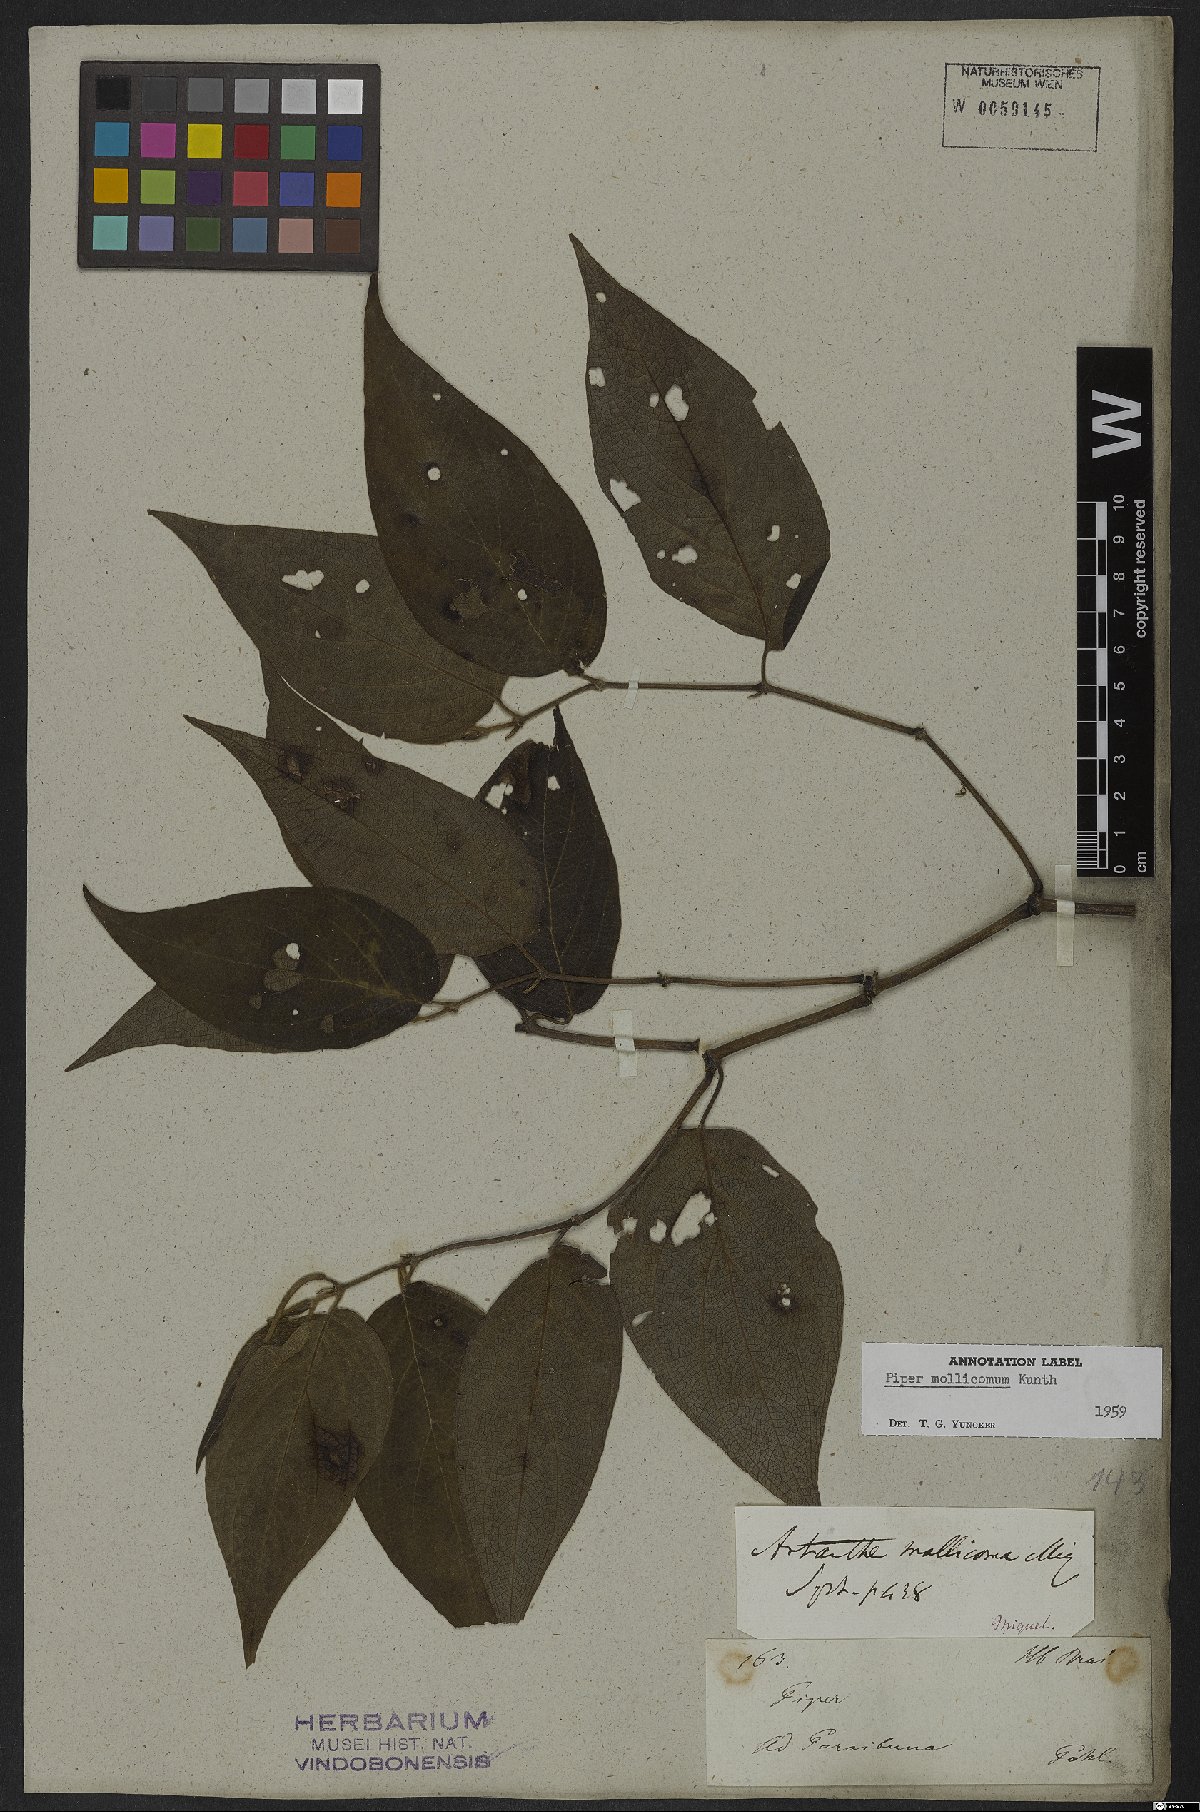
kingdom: Plantae
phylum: Tracheophyta
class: Magnoliopsida
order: Piperales
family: Piperaceae
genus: Piper
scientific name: Piper mollicomum
